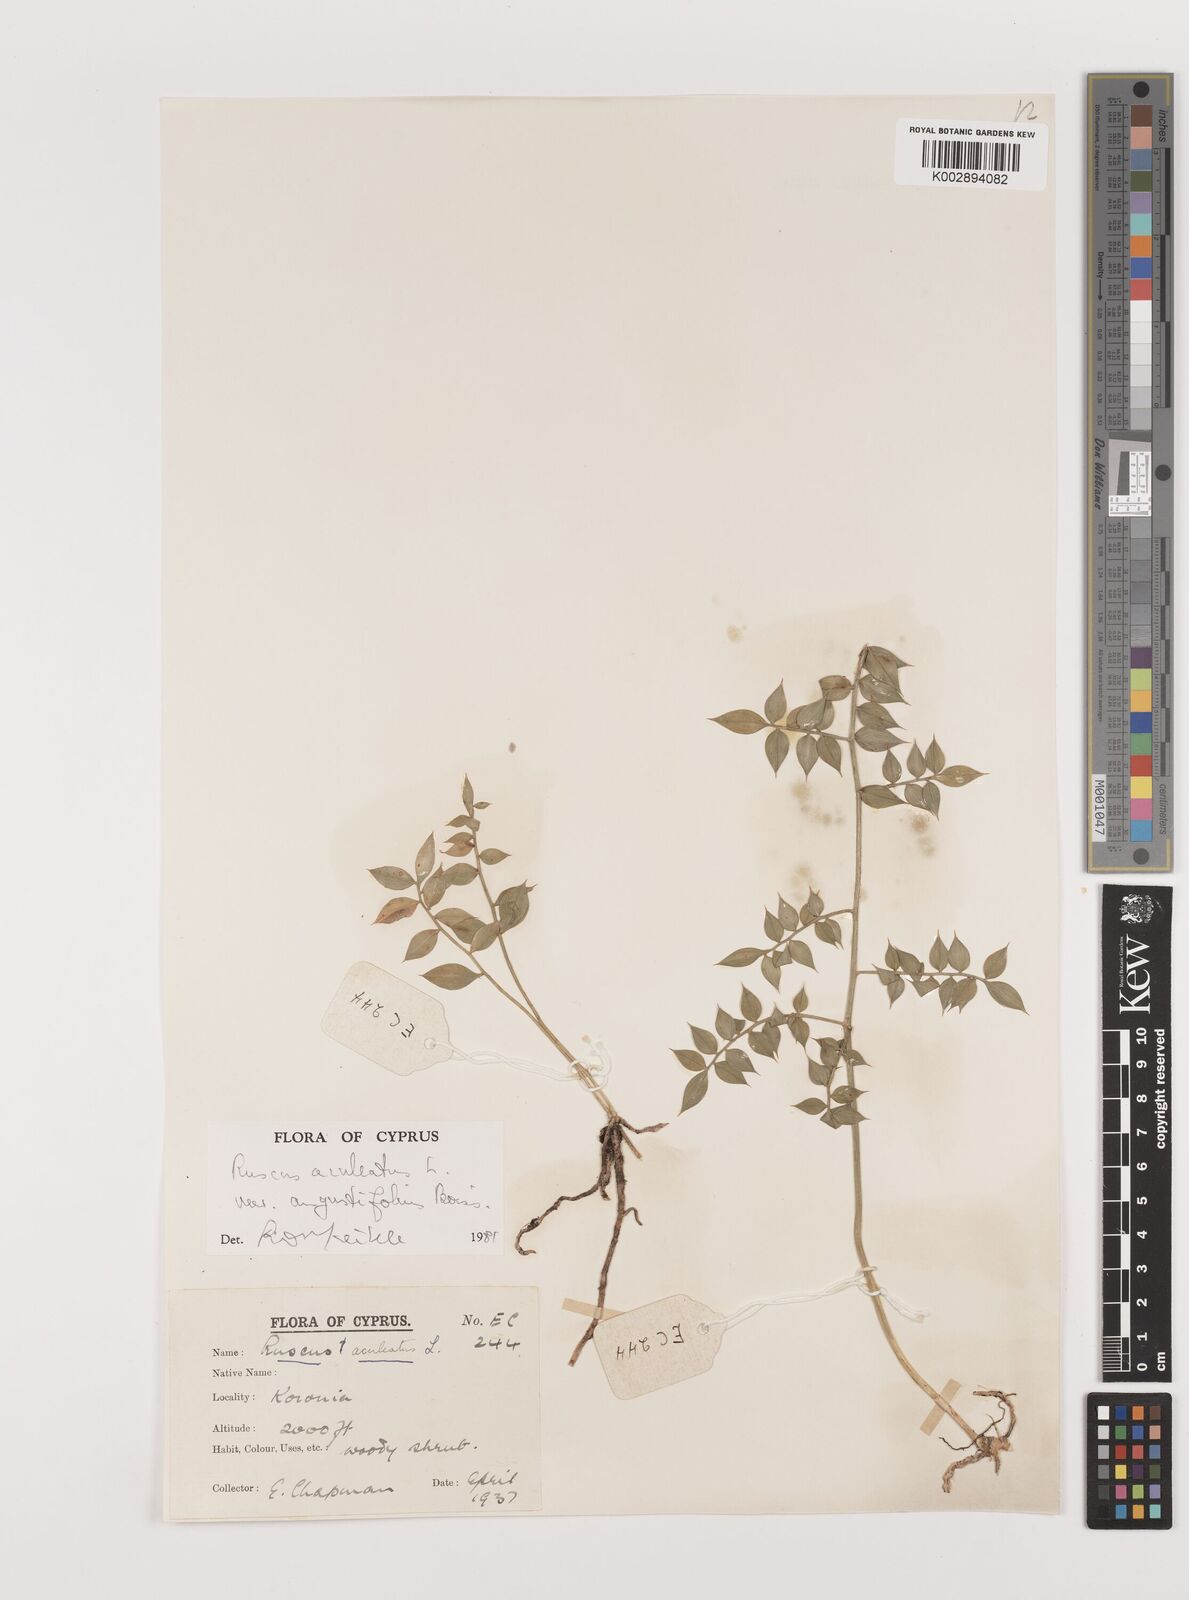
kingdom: Plantae
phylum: Tracheophyta
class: Liliopsida
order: Asparagales
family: Asparagaceae
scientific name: Asparagaceae
